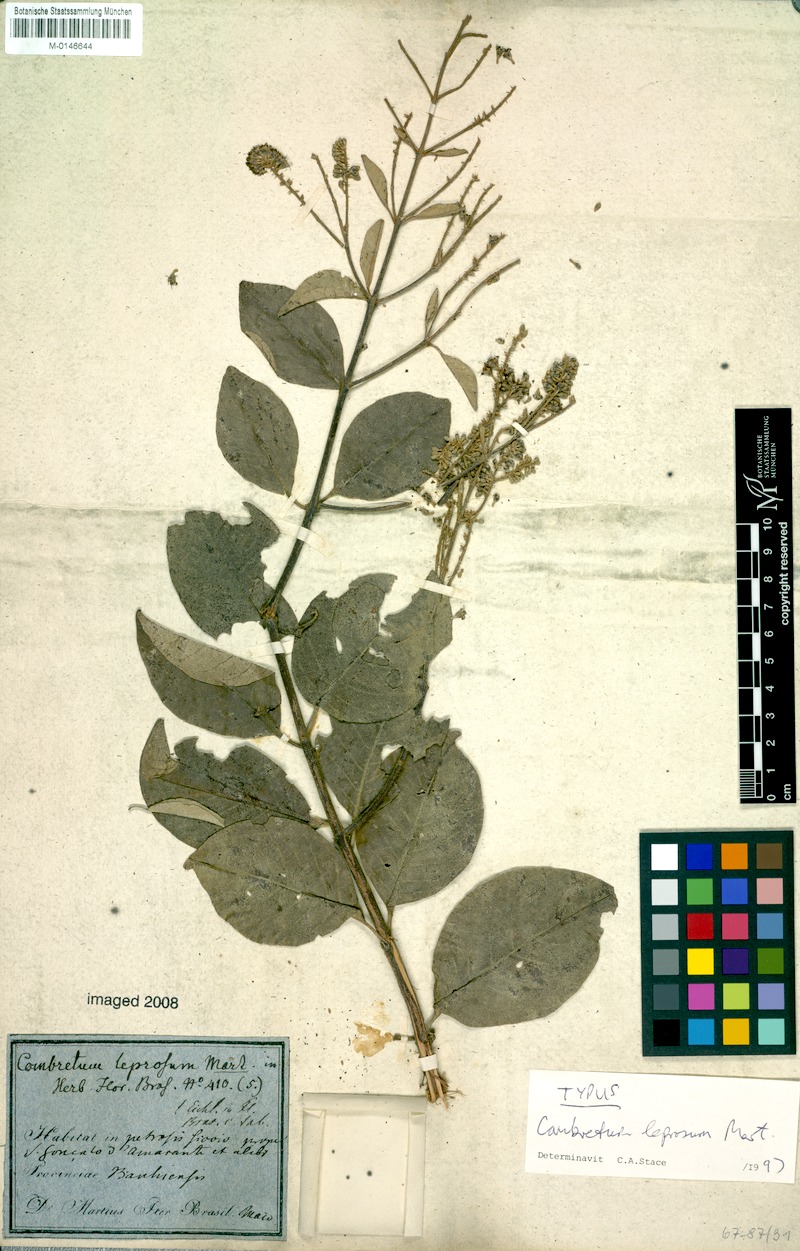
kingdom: Plantae
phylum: Tracheophyta
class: Magnoliopsida
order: Myrtales
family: Combretaceae
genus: Combretum
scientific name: Combretum leprosum
